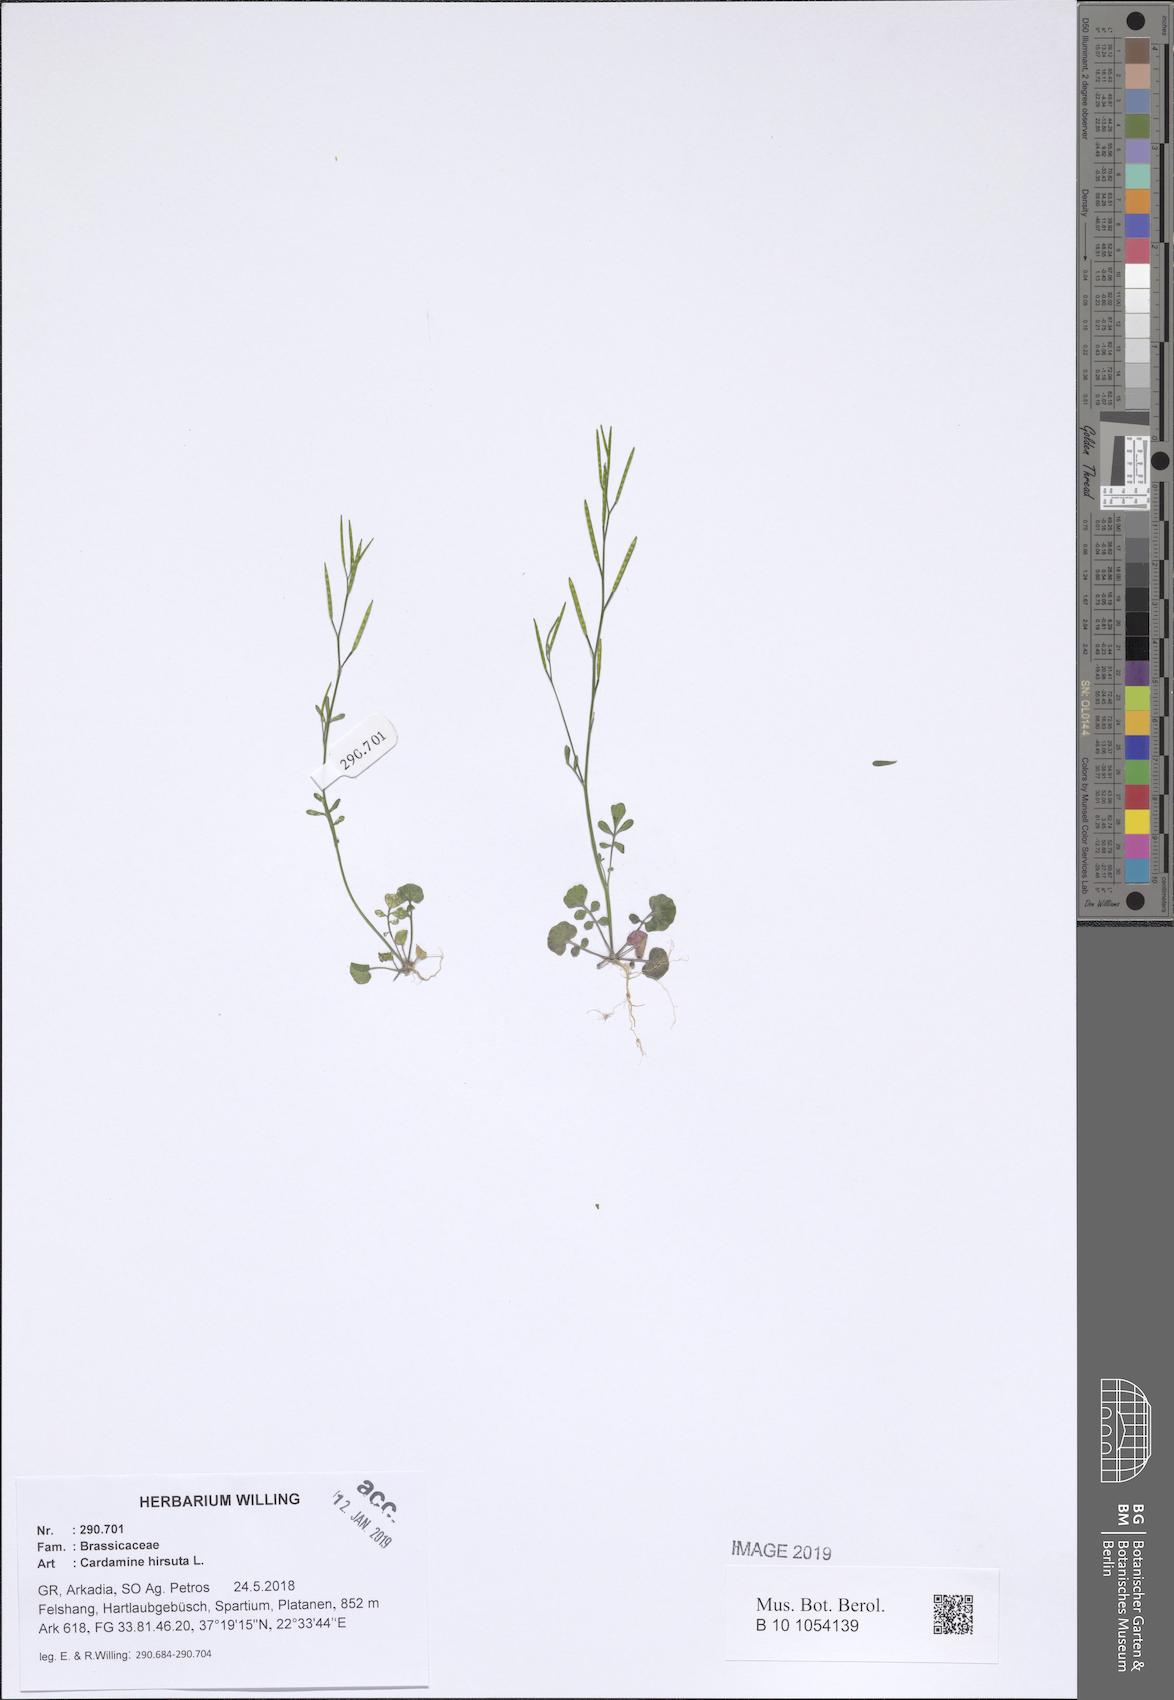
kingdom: Plantae
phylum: Tracheophyta
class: Magnoliopsida
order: Brassicales
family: Brassicaceae
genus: Cardamine
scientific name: Cardamine hirsuta
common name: Hairy bittercress
